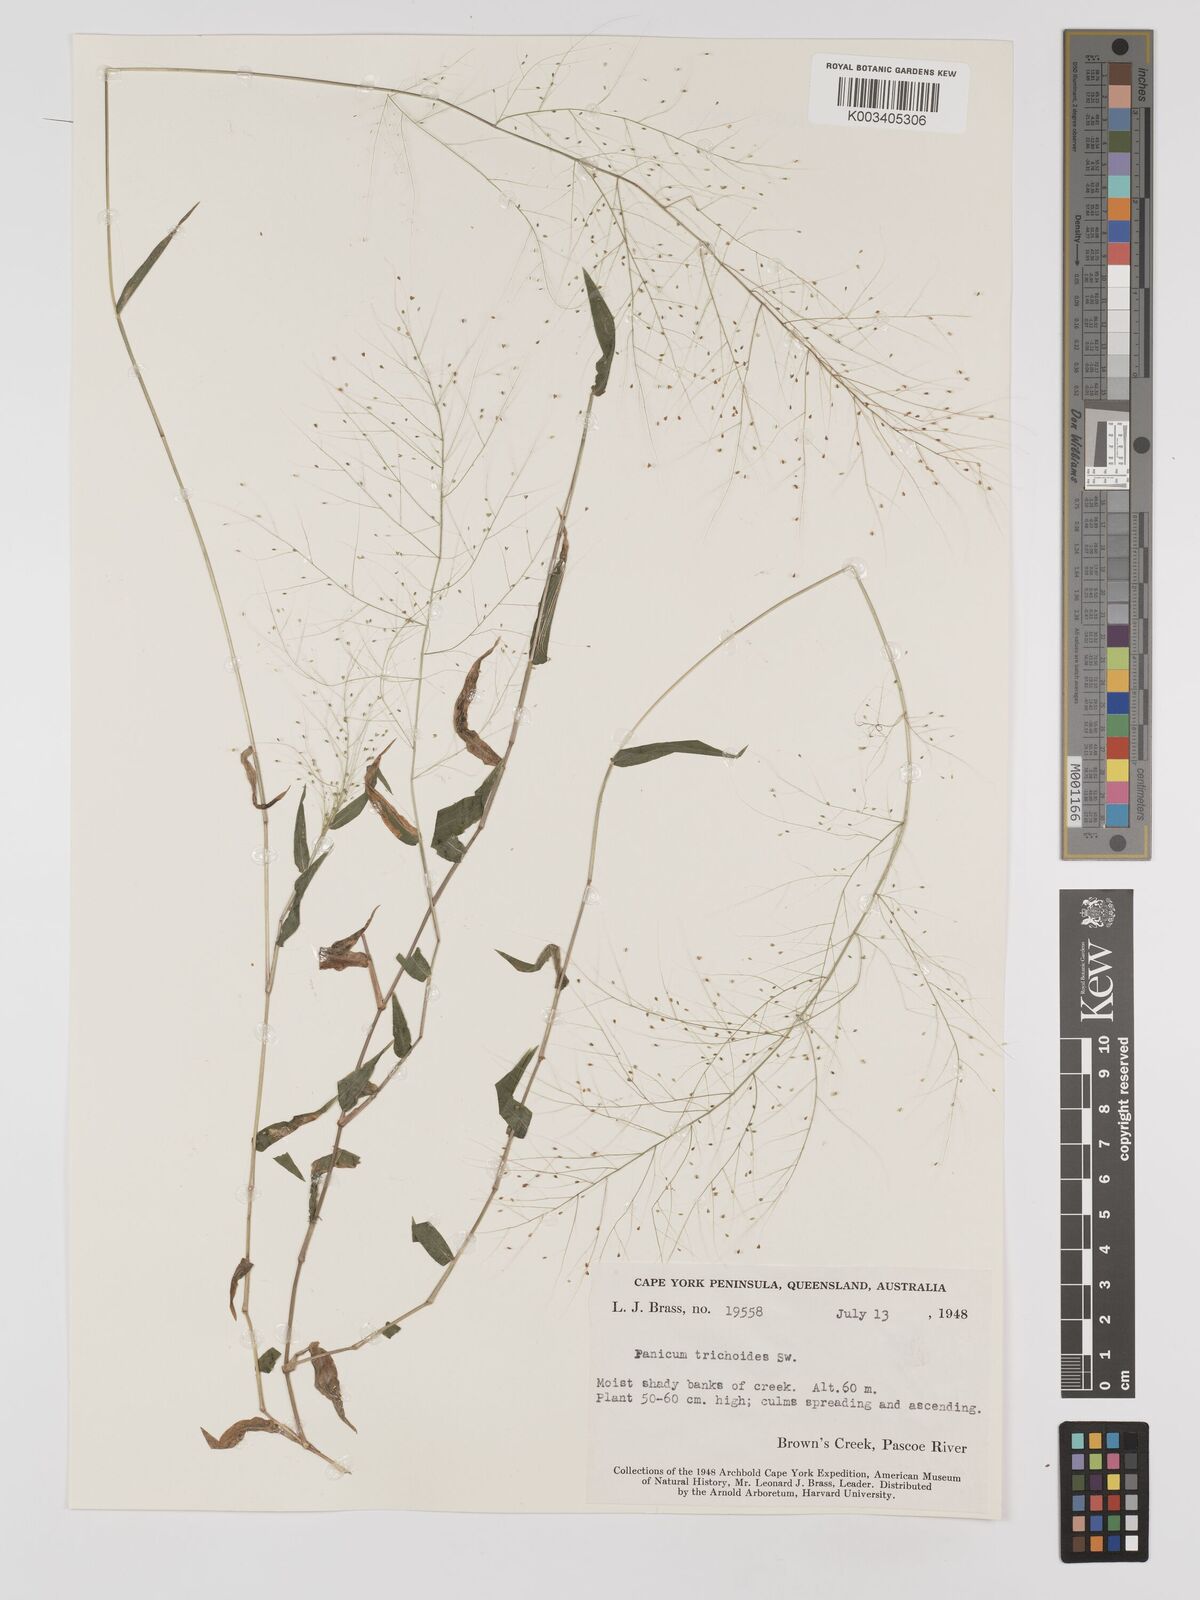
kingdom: Plantae
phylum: Tracheophyta
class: Liliopsida
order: Poales
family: Poaceae
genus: Panicum
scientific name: Panicum trichoides
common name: Tickle grass
